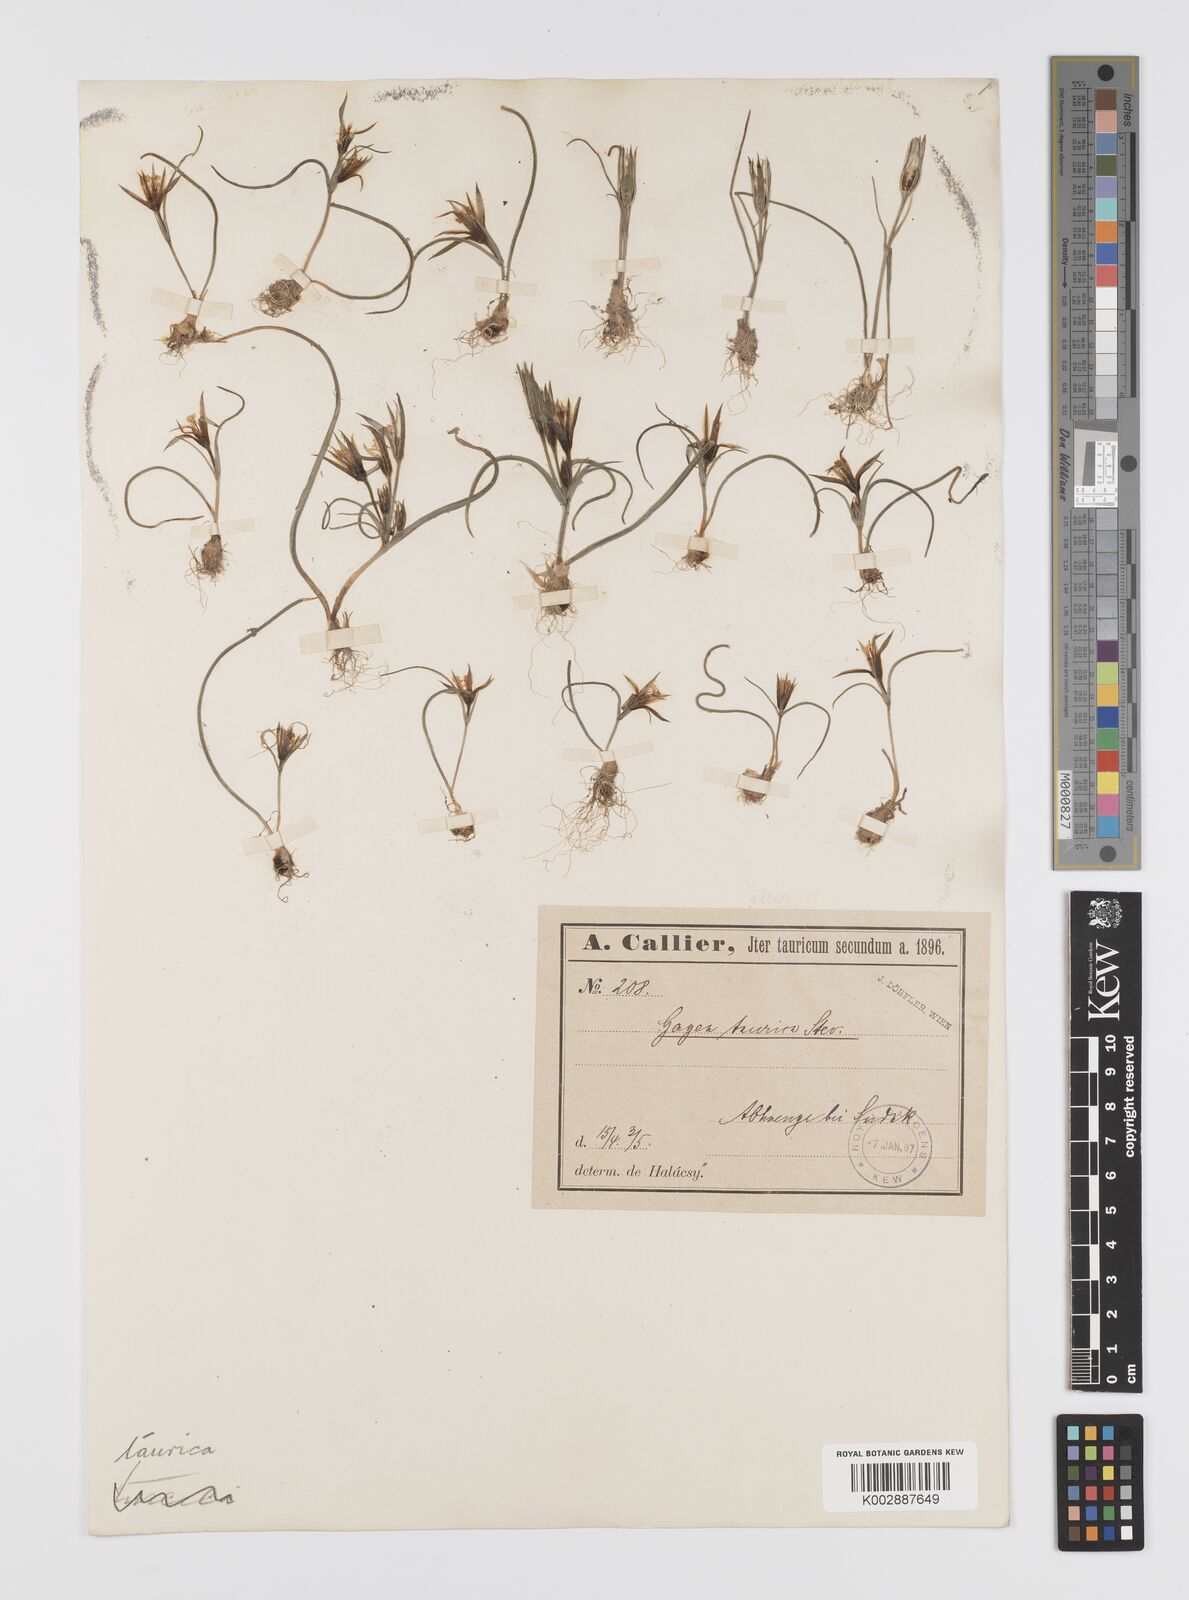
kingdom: Plantae
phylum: Tracheophyta
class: Liliopsida
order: Liliales
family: Liliaceae
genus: Gagea
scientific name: Gagea taurica
